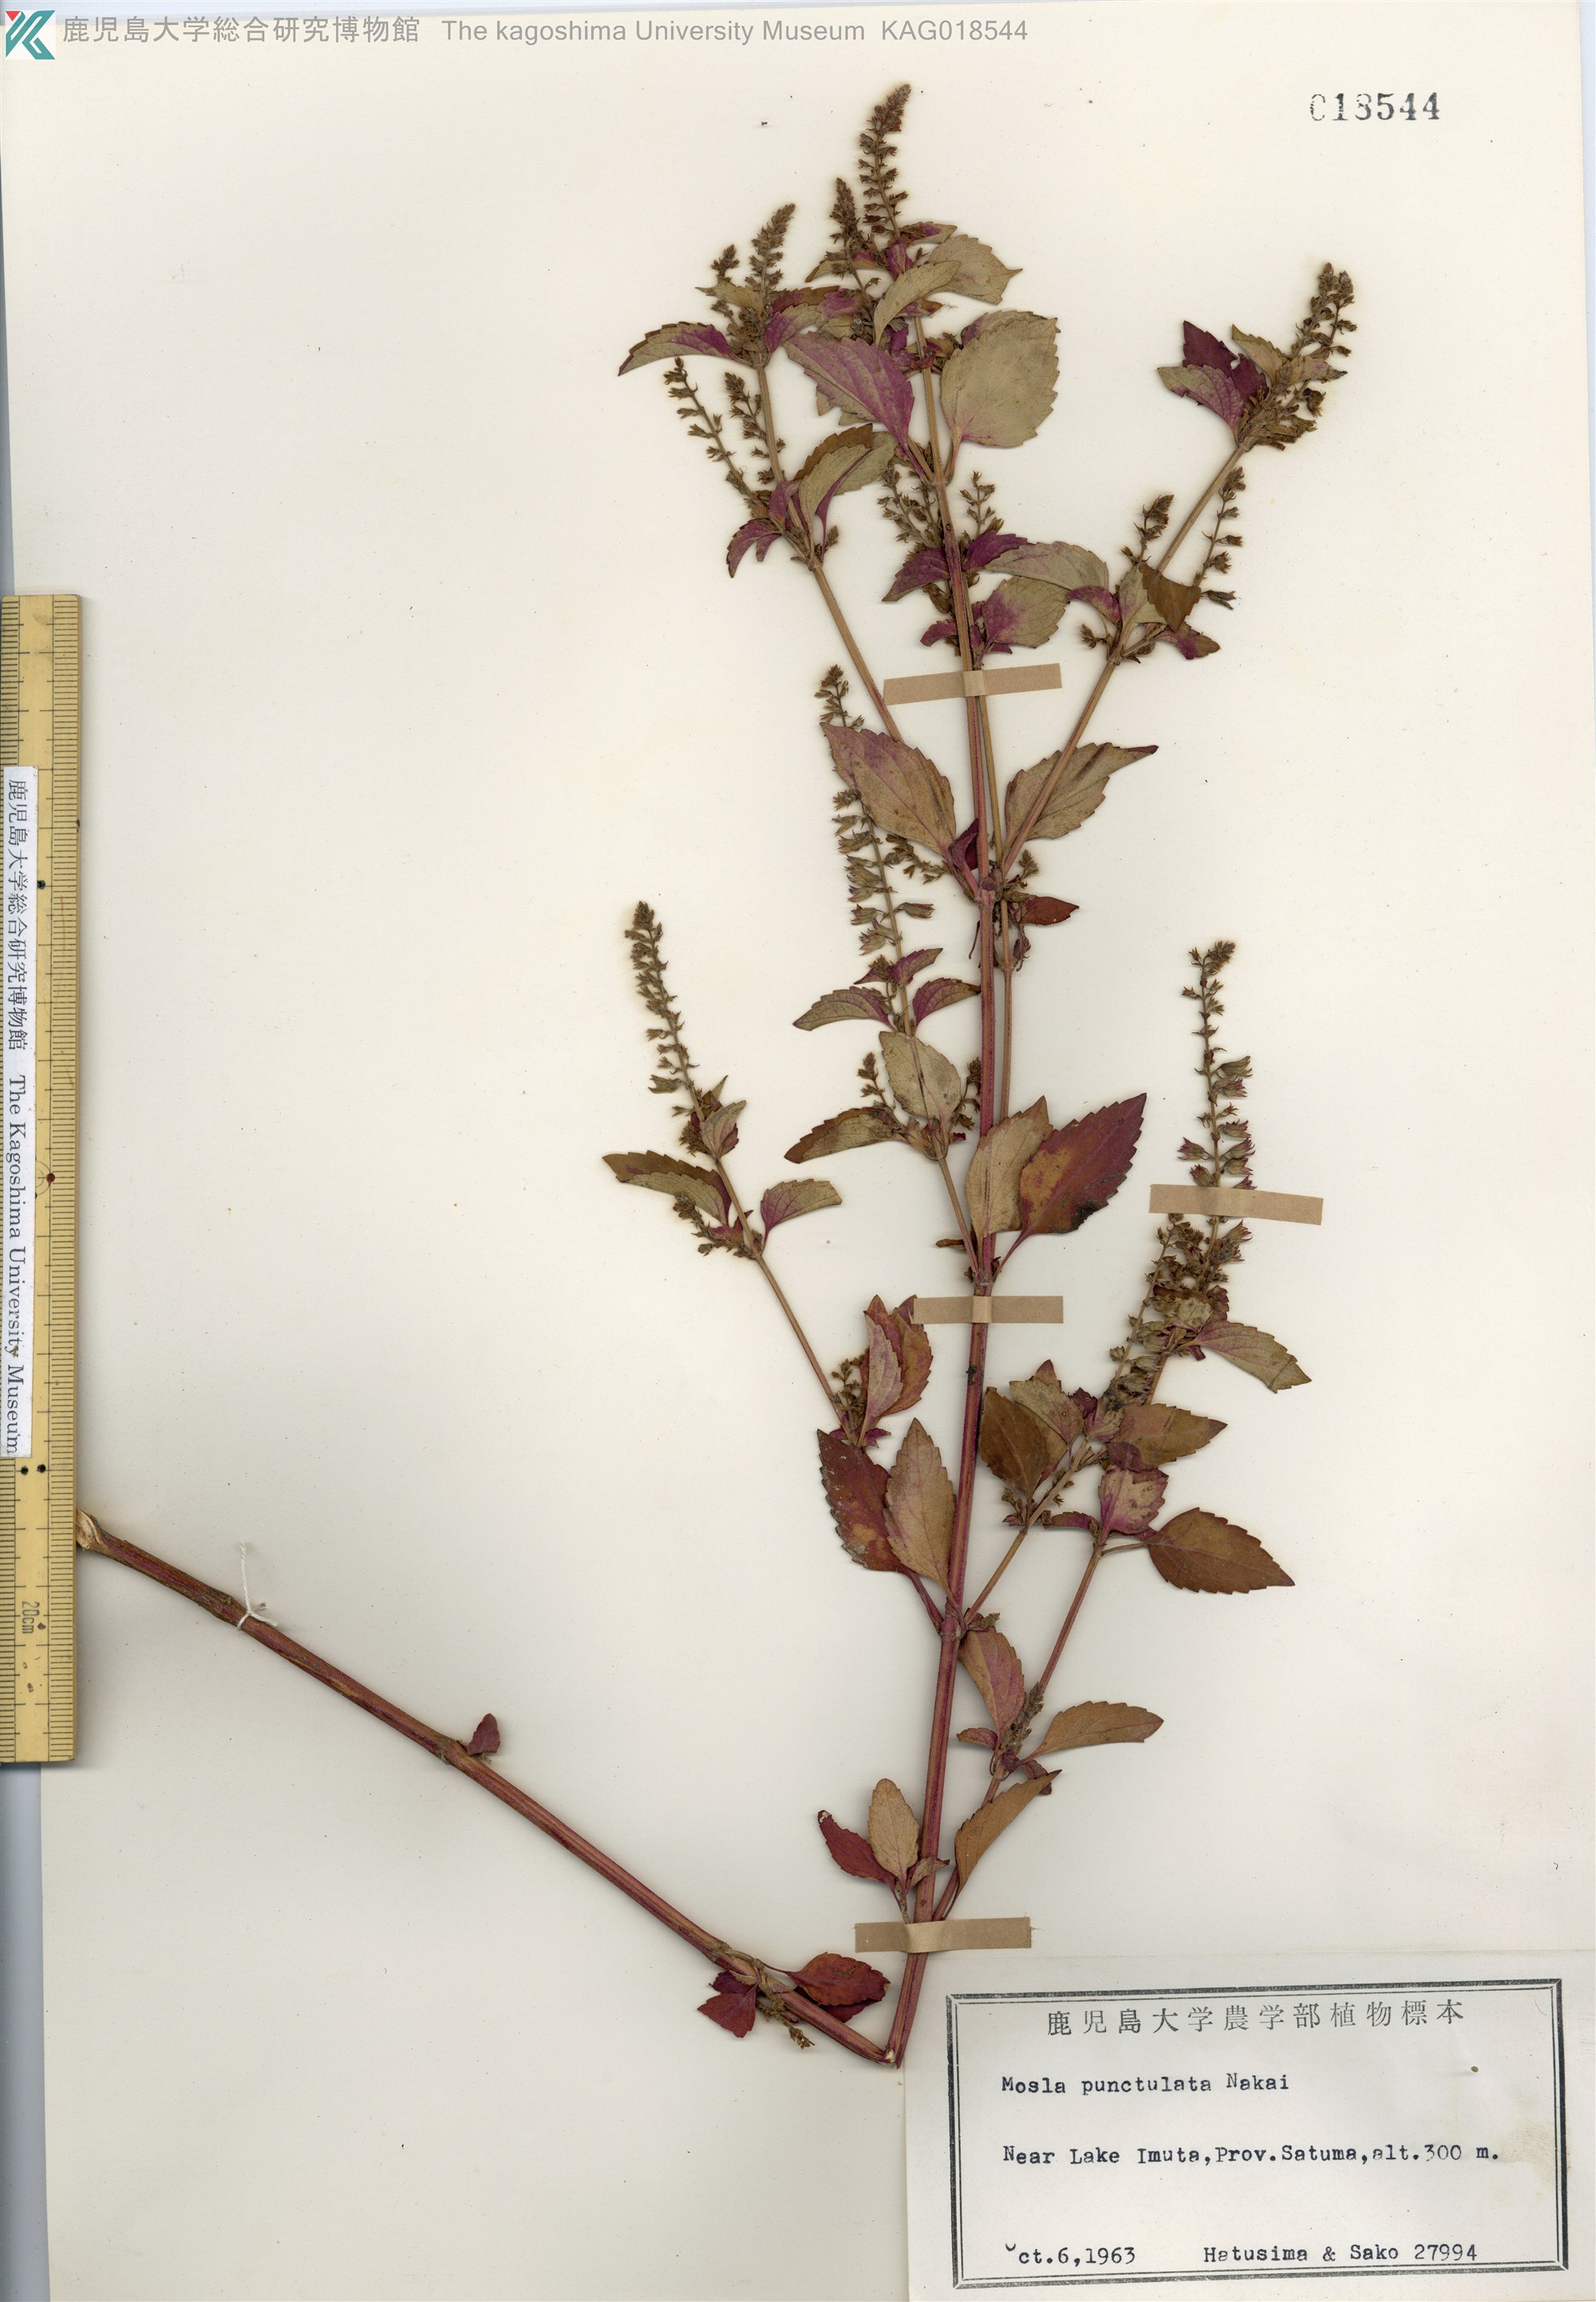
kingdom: Plantae
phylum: Tracheophyta
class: Magnoliopsida
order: Lamiales
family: Lamiaceae
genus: Mosla
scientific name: Mosla scabra
